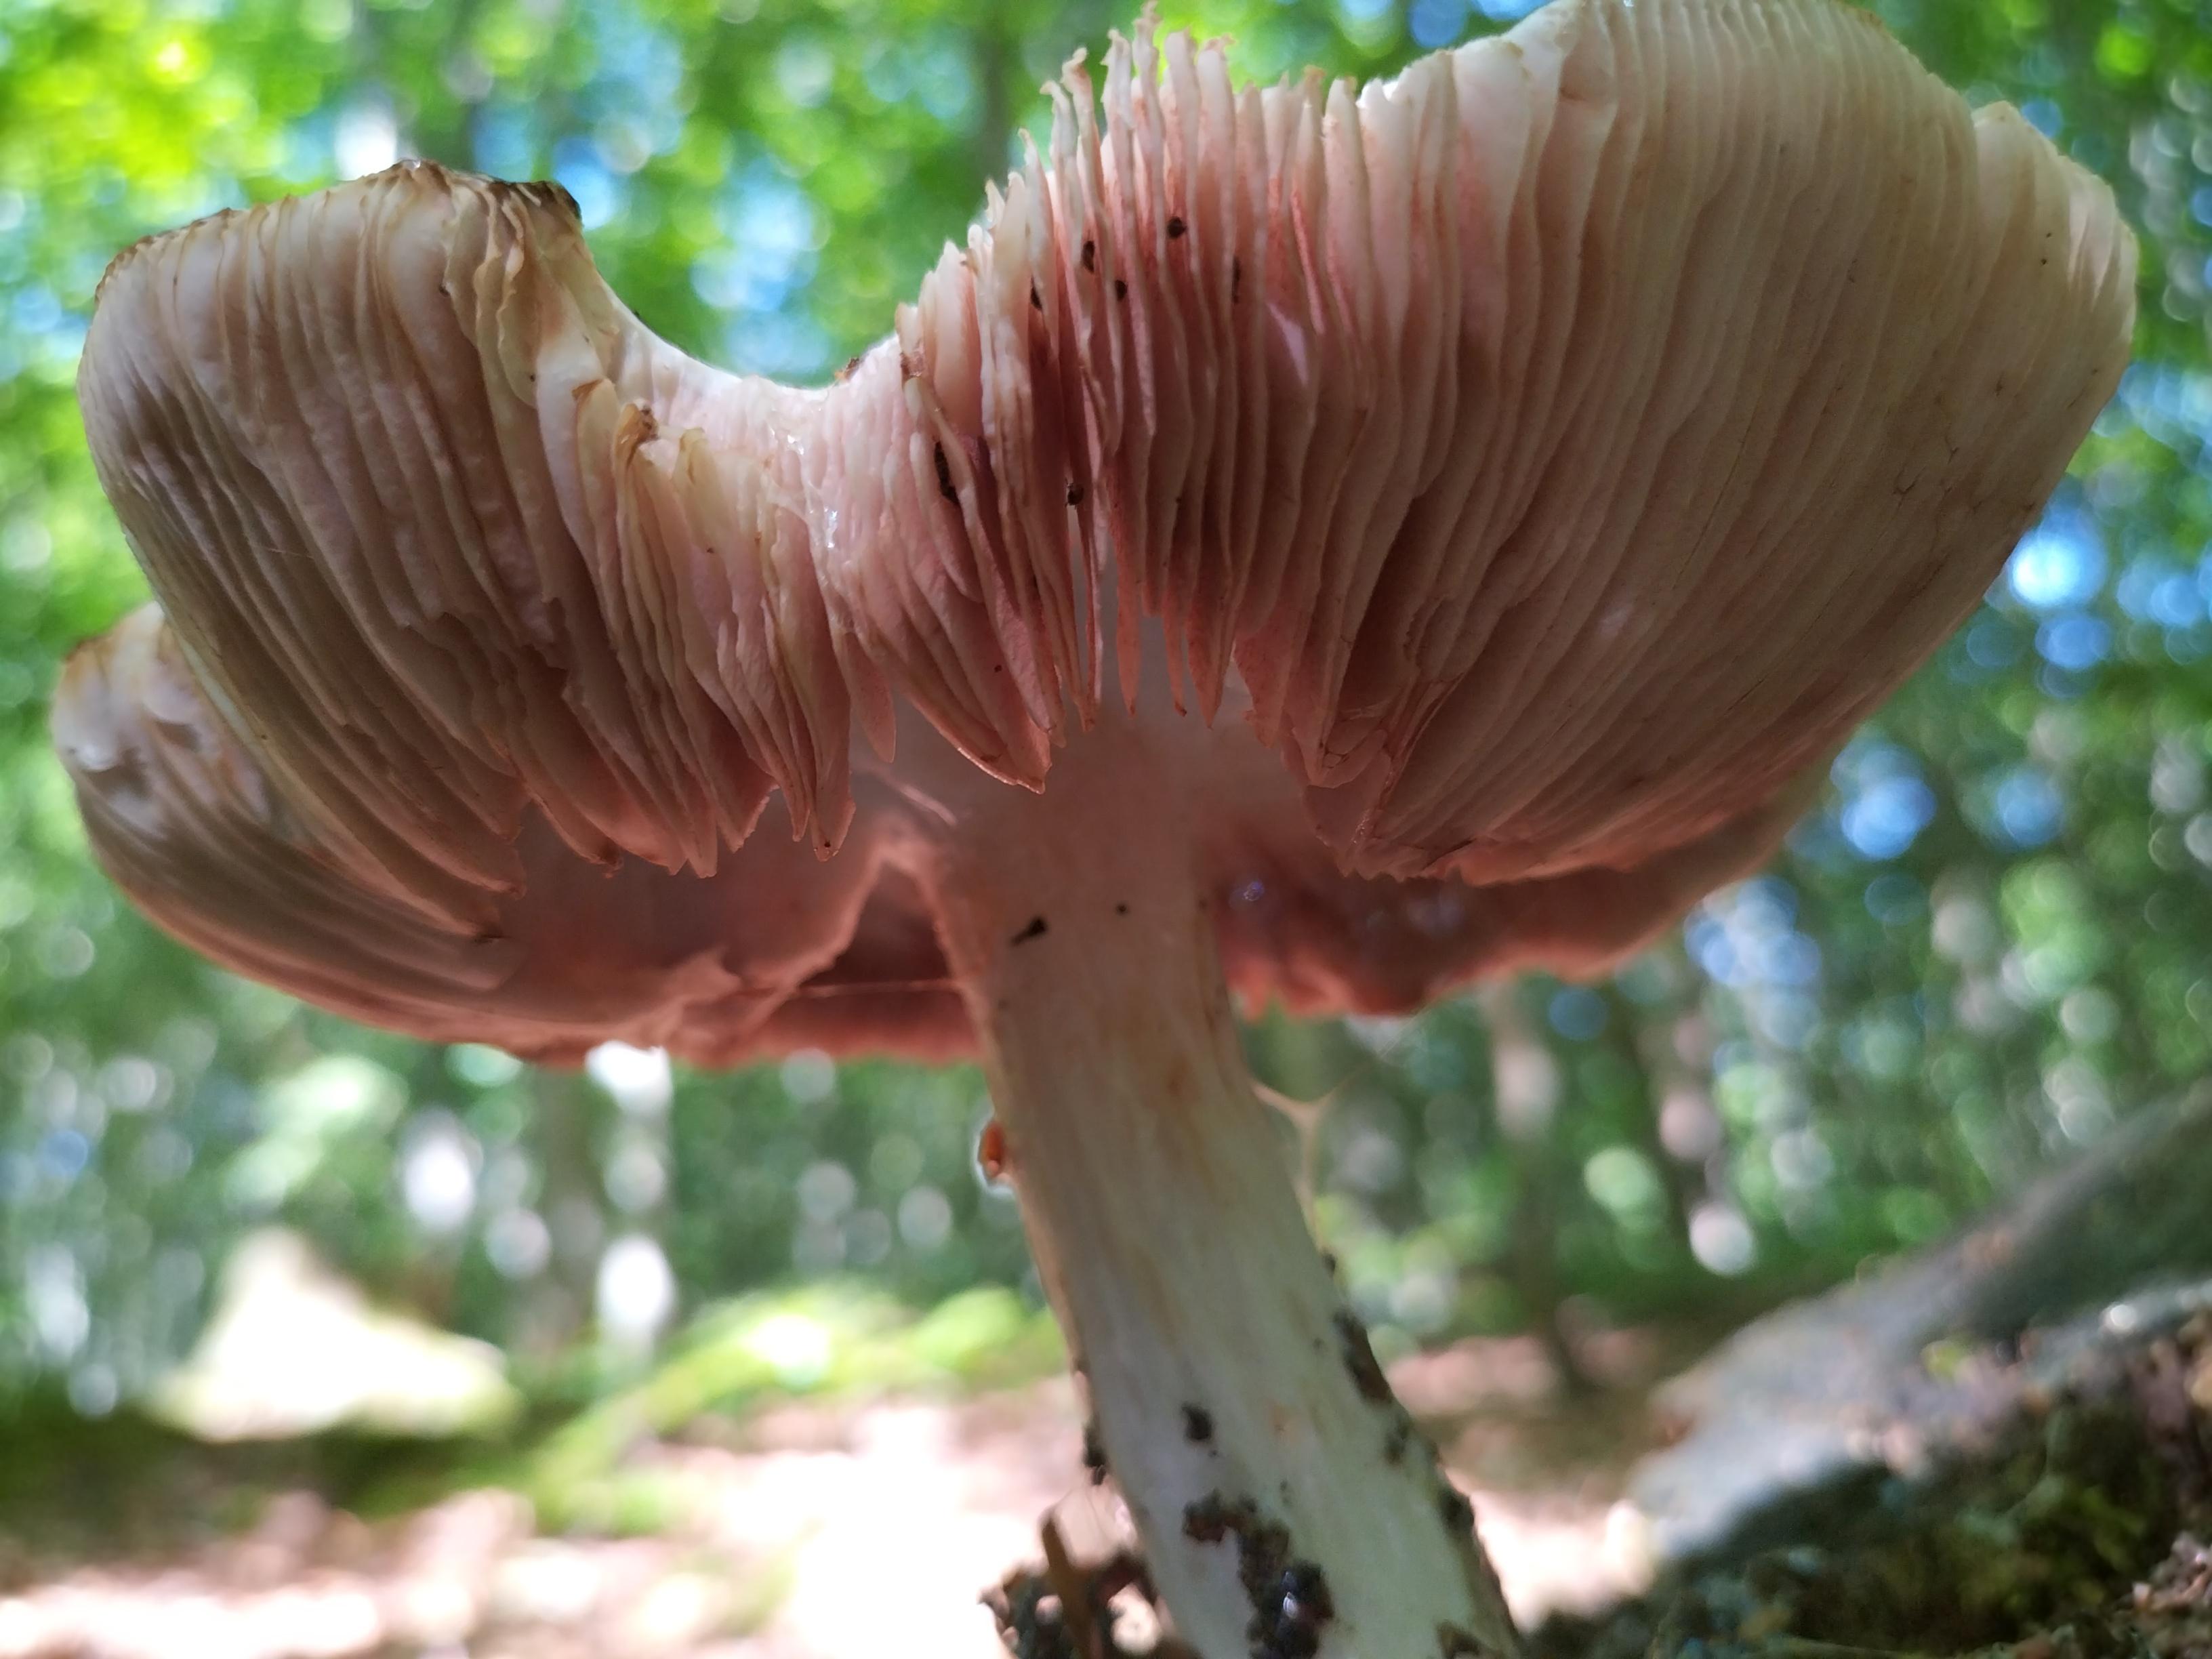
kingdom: Fungi
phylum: Basidiomycota
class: Agaricomycetes
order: Agaricales
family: Pluteaceae
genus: Pluteus
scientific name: Pluteus cervinus
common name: sodfarvet skærmhat
